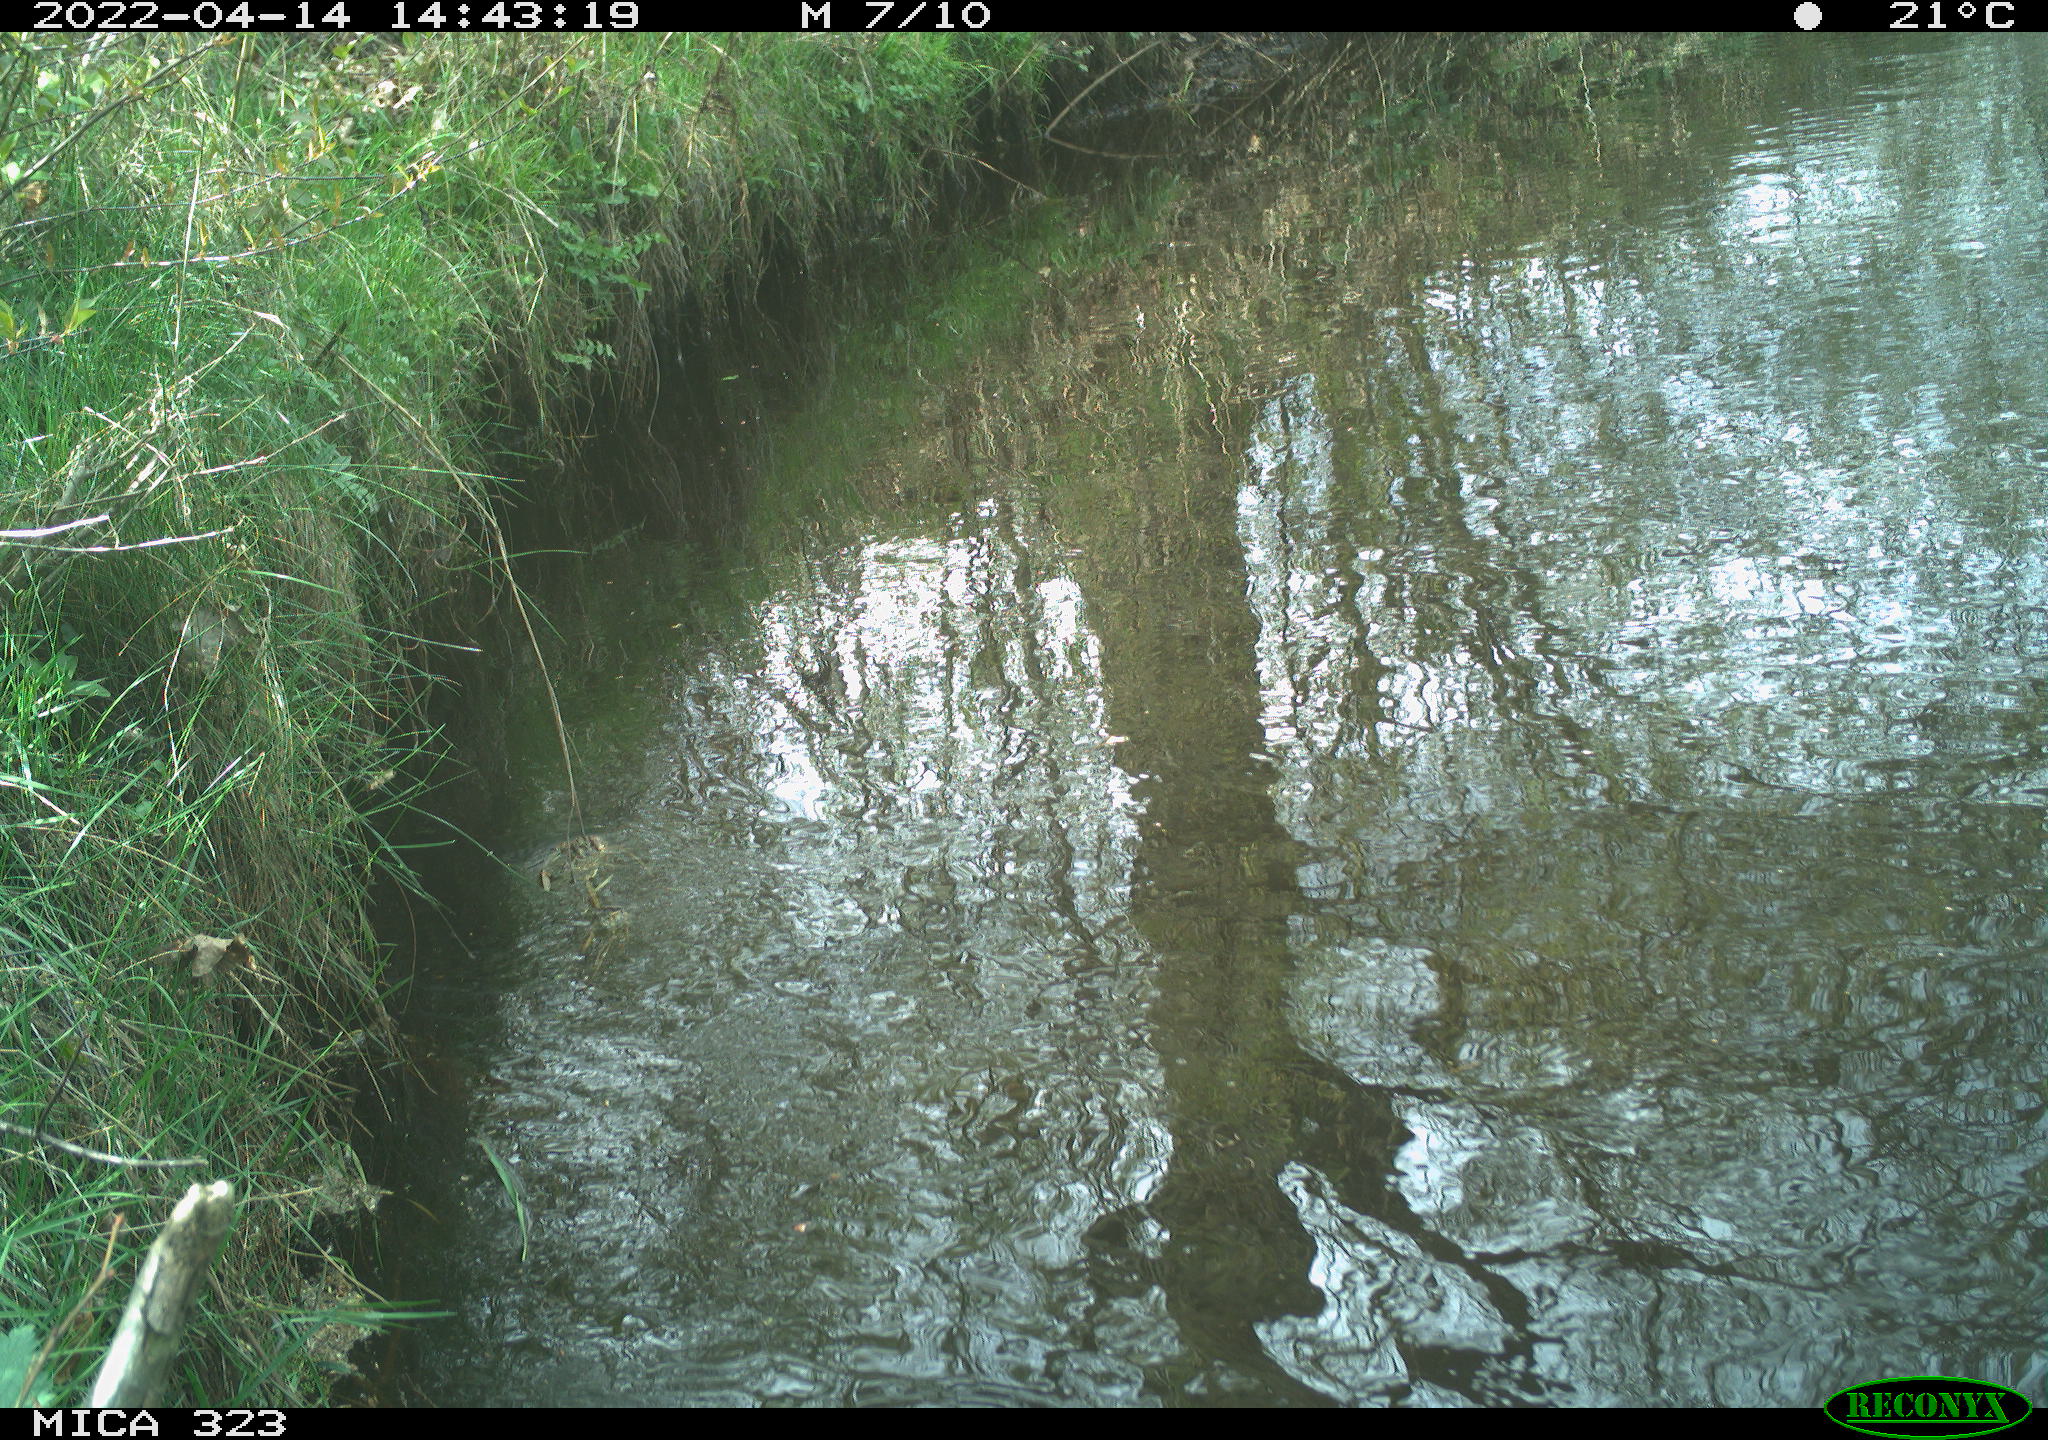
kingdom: Animalia
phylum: Chordata
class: Aves
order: Gruiformes
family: Rallidae
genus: Gallinula
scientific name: Gallinula chloropus
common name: Common moorhen
